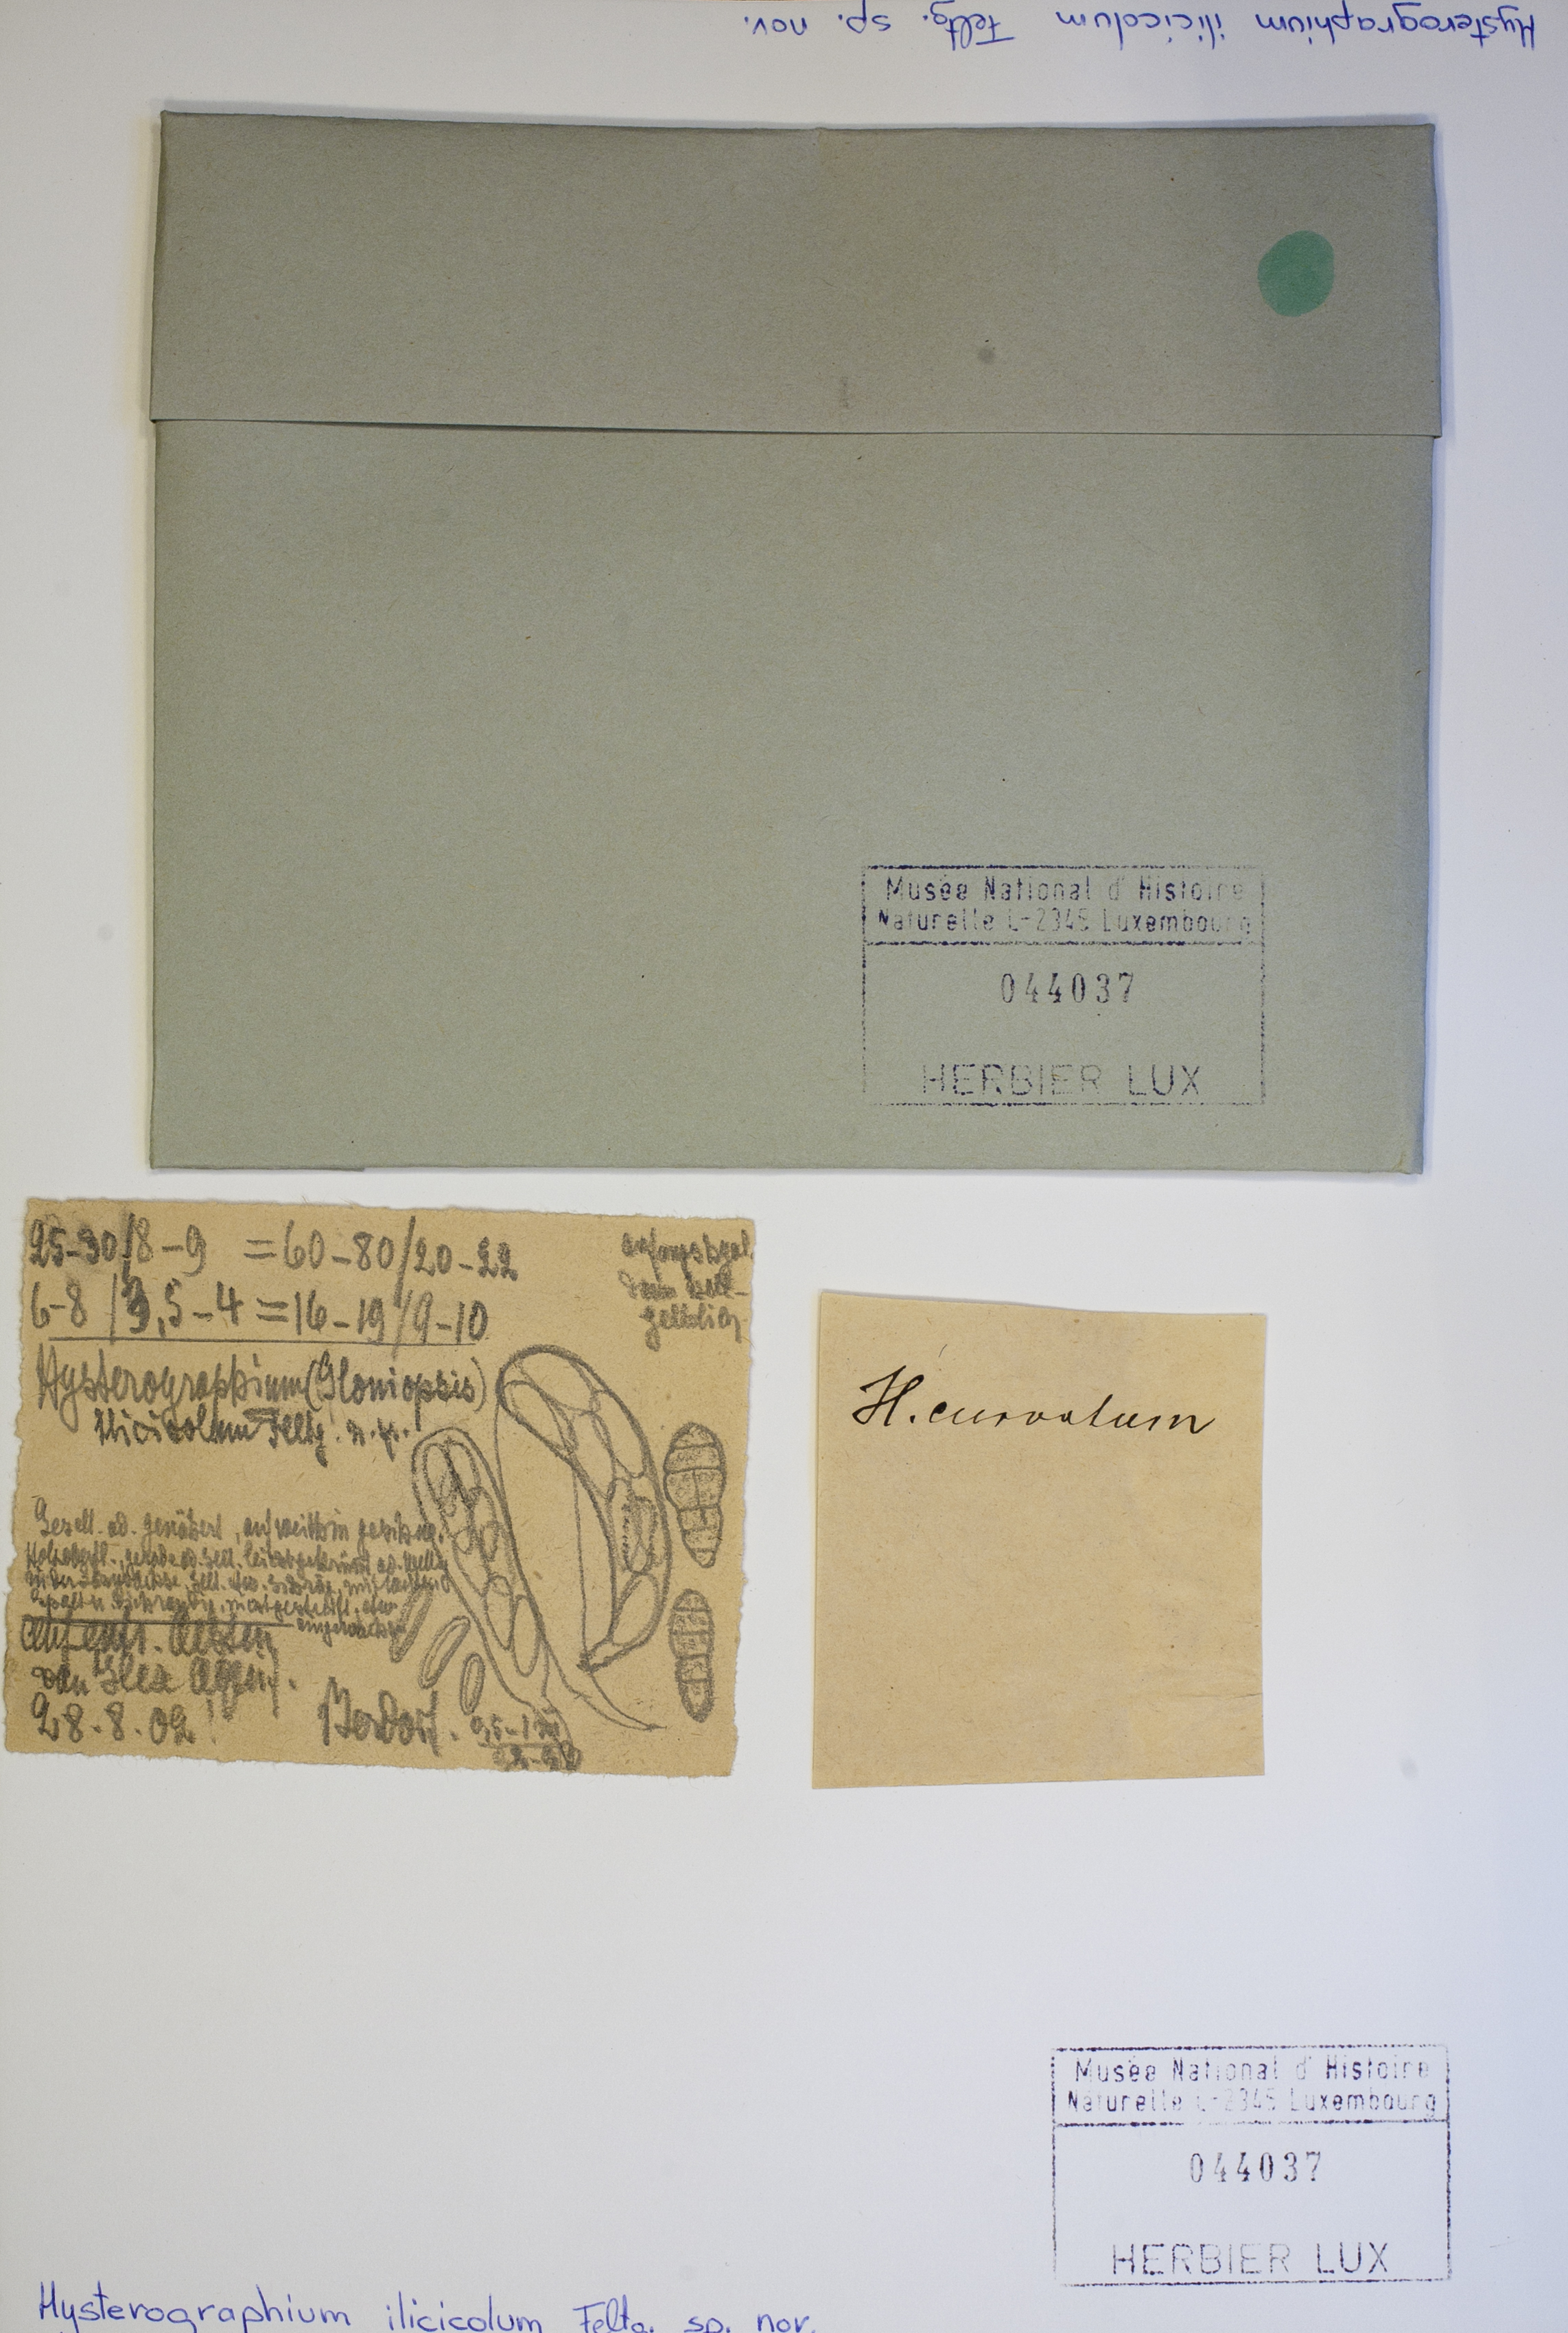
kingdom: Fungi
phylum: Ascomycota
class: Dothideomycetes
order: Hysteriales
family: Hysteriaceae
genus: Hysterographium
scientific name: Hysterographium ilicicola
